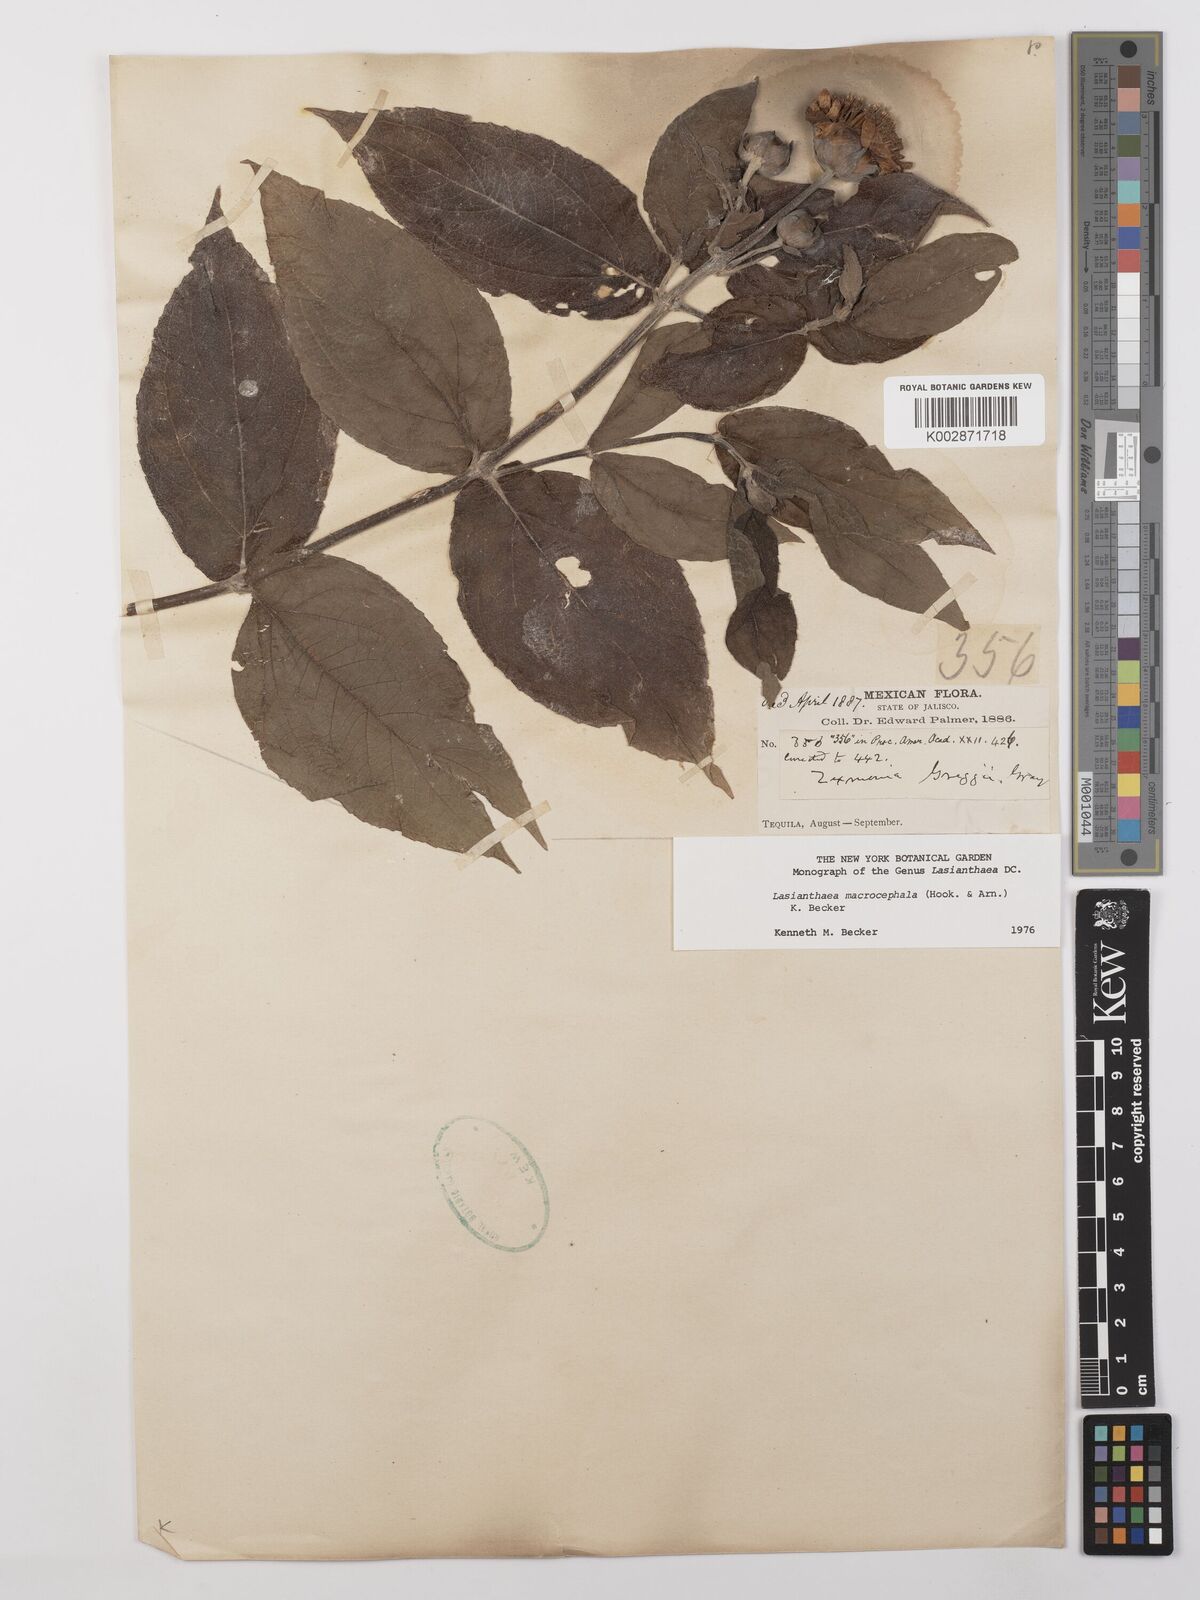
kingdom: Plantae
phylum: Tracheophyta
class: Magnoliopsida
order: Asterales
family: Asteraceae
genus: Lasianthaea
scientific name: Lasianthaea macrocephala
